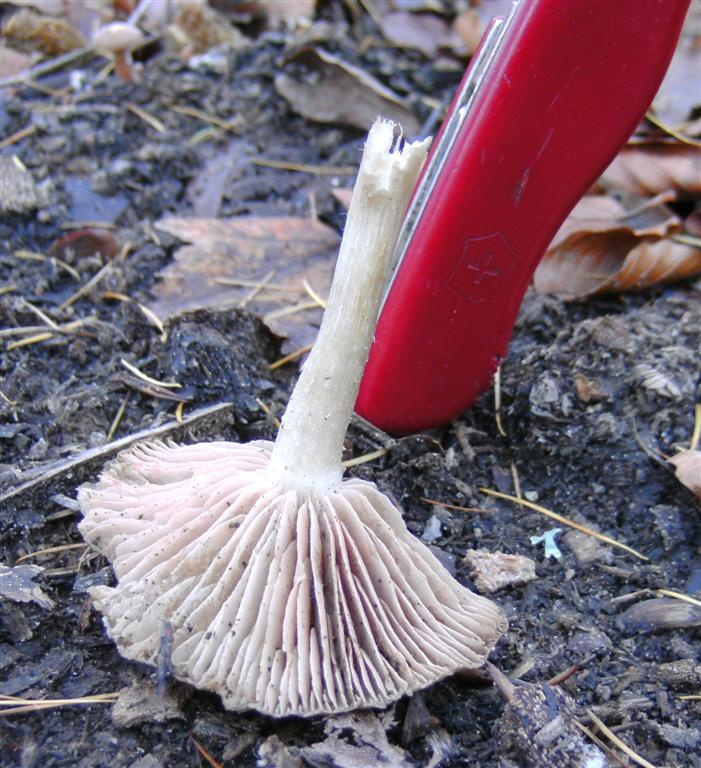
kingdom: Fungi
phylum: Basidiomycota
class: Agaricomycetes
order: Agaricales
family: Entolomataceae
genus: Entoloma
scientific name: Entoloma rhodopolium
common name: skov-rødblad
